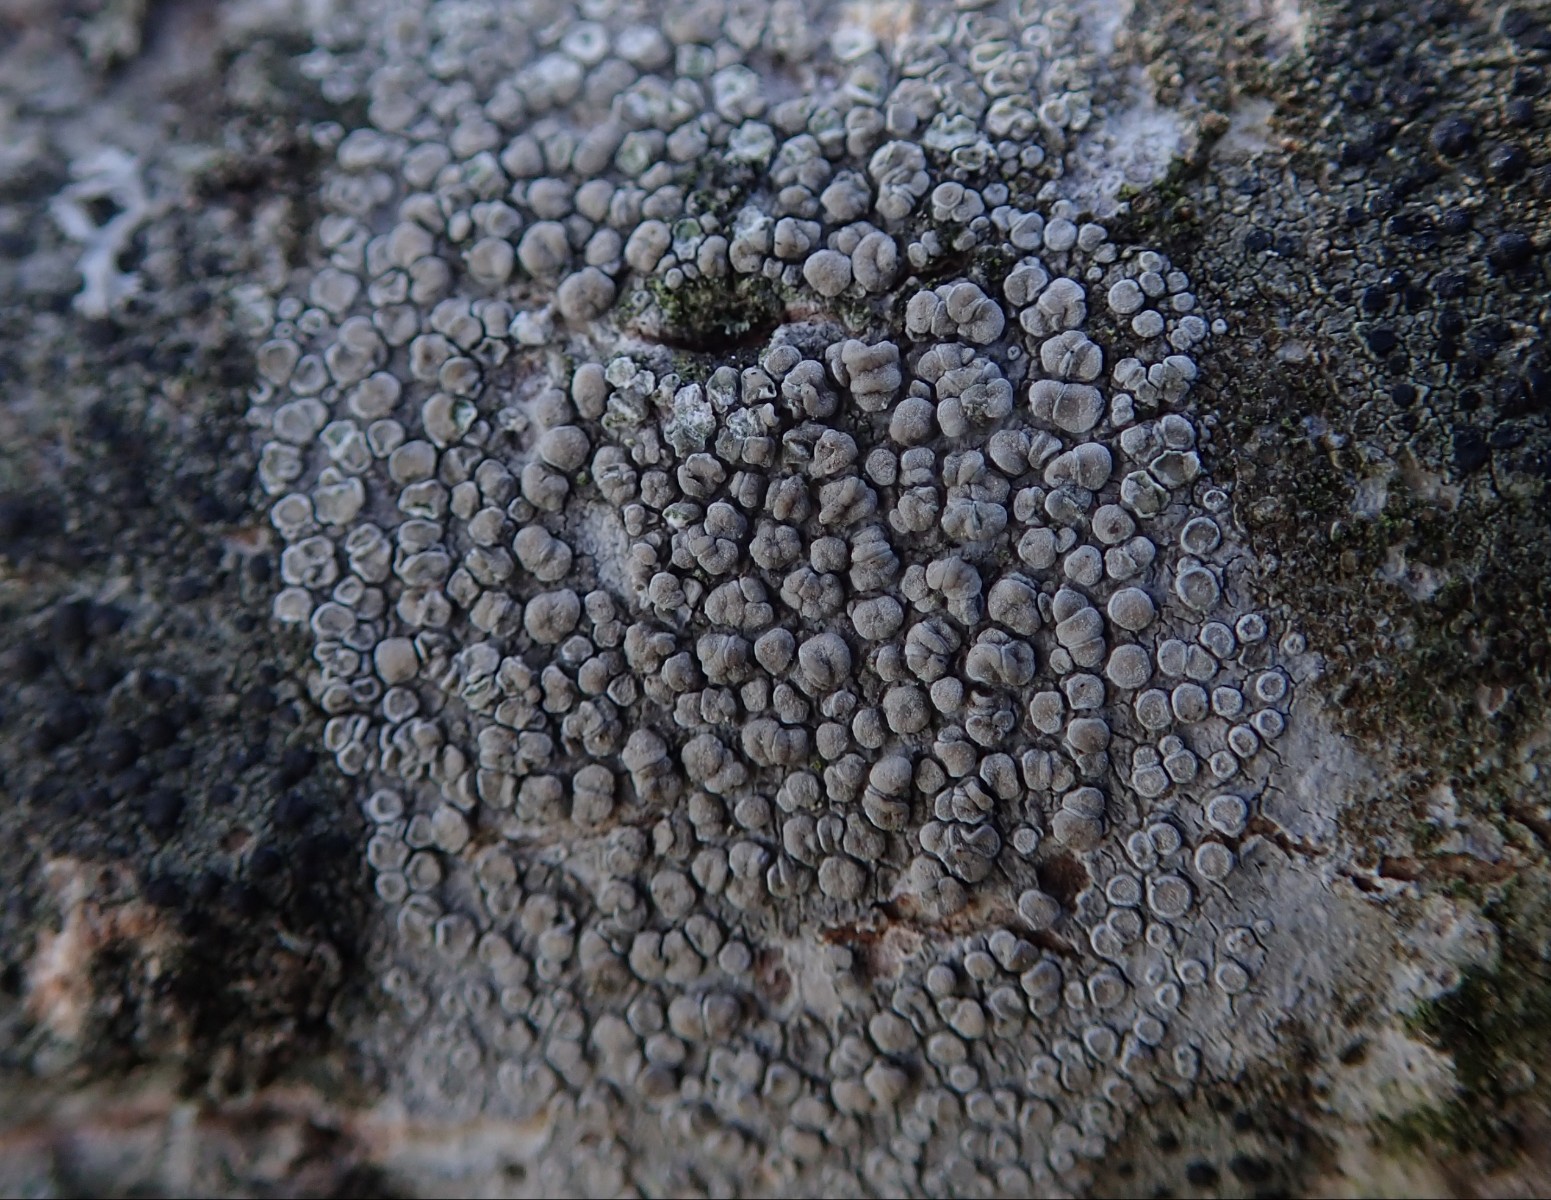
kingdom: Fungi
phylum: Ascomycota
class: Lecanoromycetes
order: Lecanorales
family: Lecanoraceae
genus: Glaucomaria
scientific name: Glaucomaria carpinea
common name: hviddugget kantskivelav
